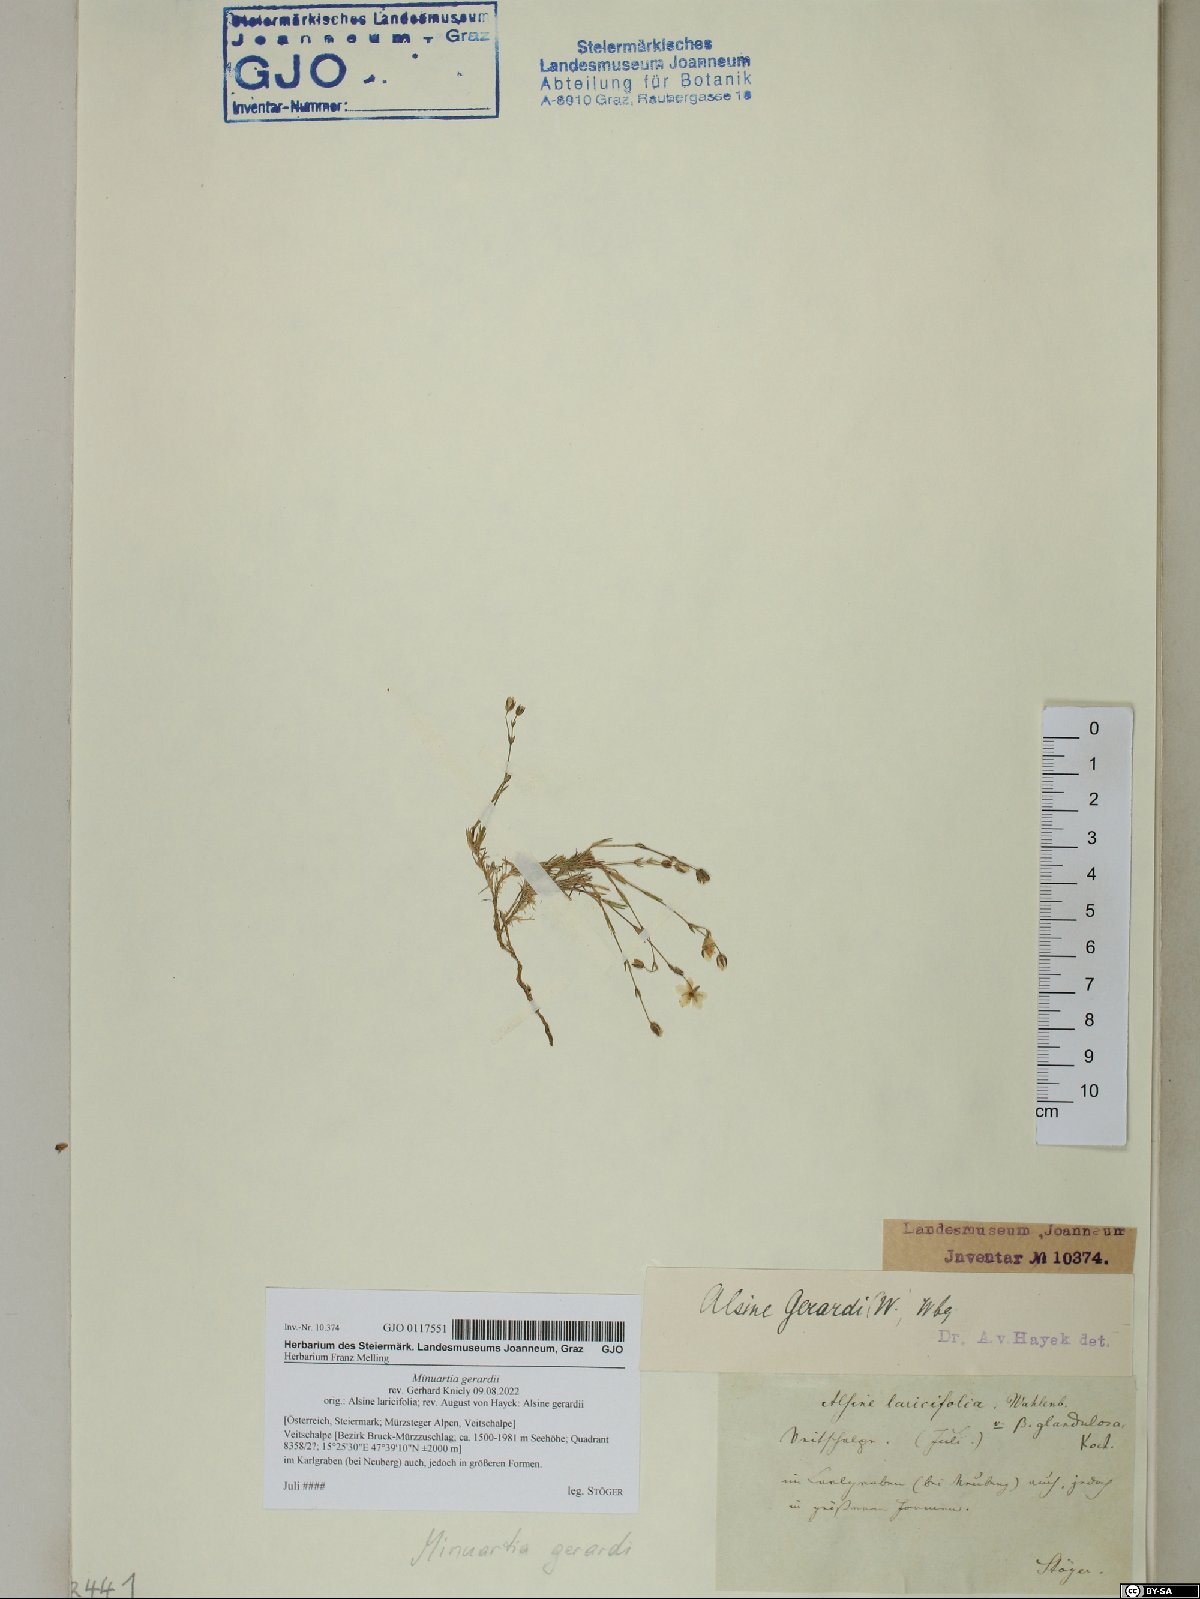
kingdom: Plantae
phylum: Tracheophyta
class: Magnoliopsida
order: Caryophyllales
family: Caryophyllaceae
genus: Sabulina
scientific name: Sabulina verna
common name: Spring sandwort
